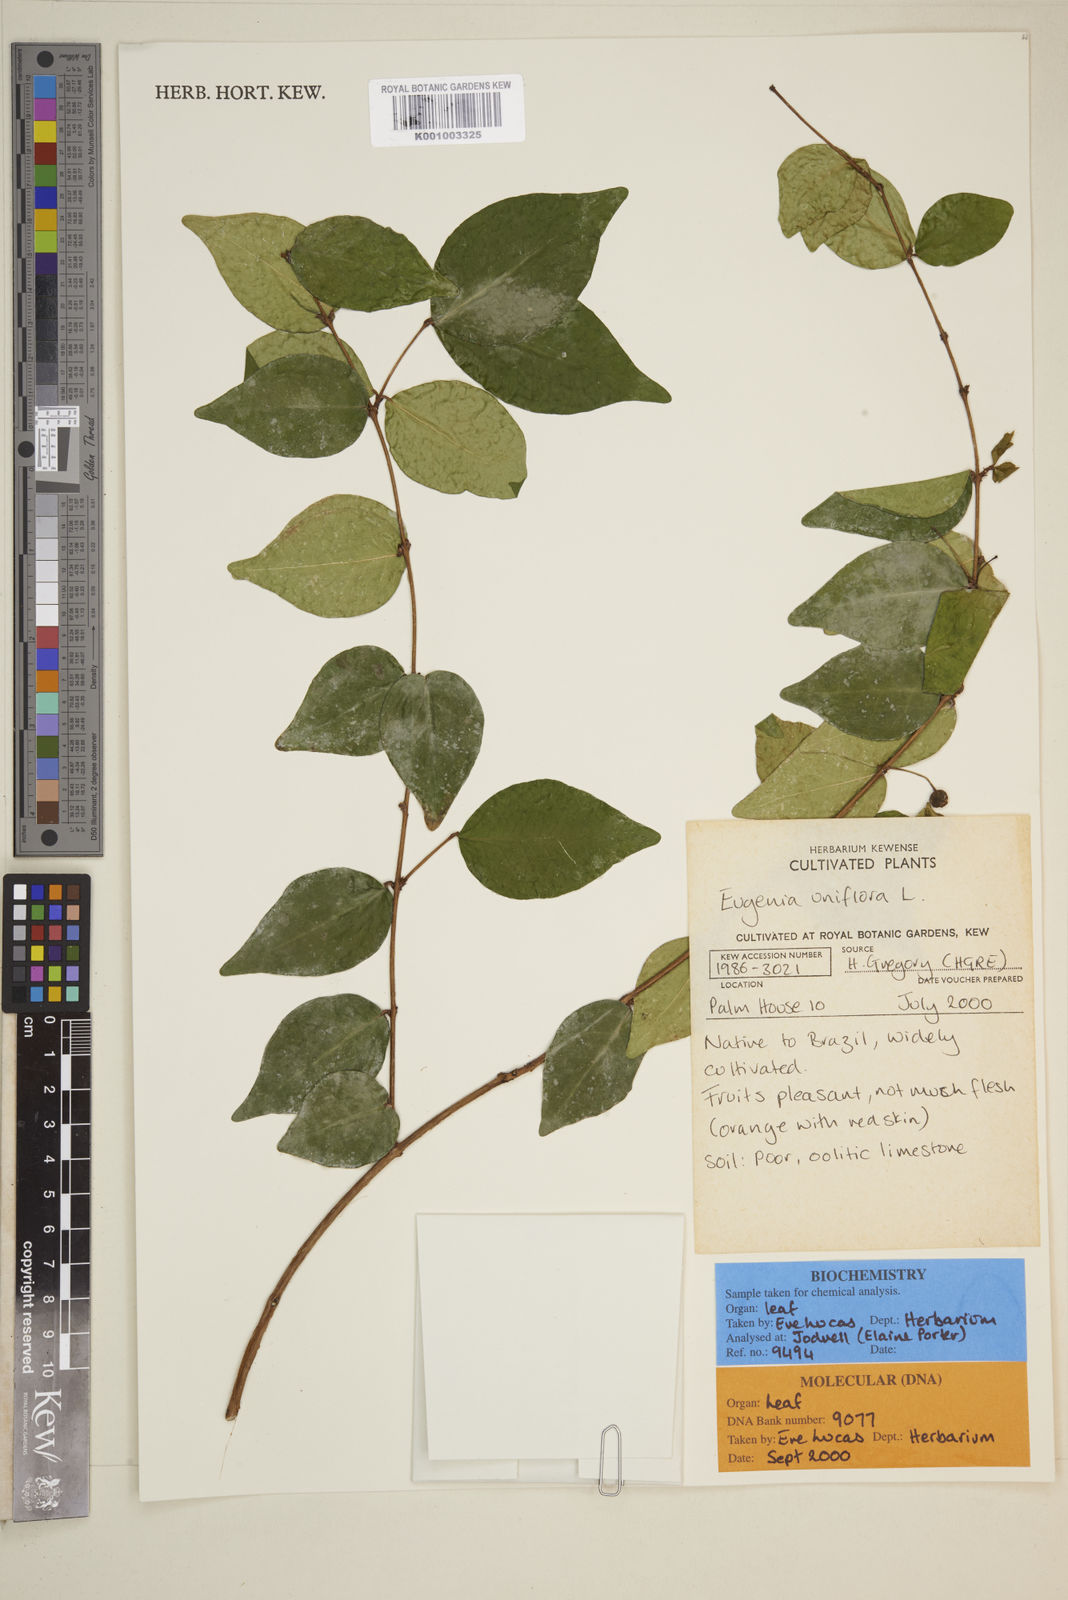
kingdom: Plantae
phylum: Tracheophyta
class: Magnoliopsida
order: Myrtales
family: Myrtaceae
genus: Eugenia
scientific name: Eugenia uniflora
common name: Surinam cherry
